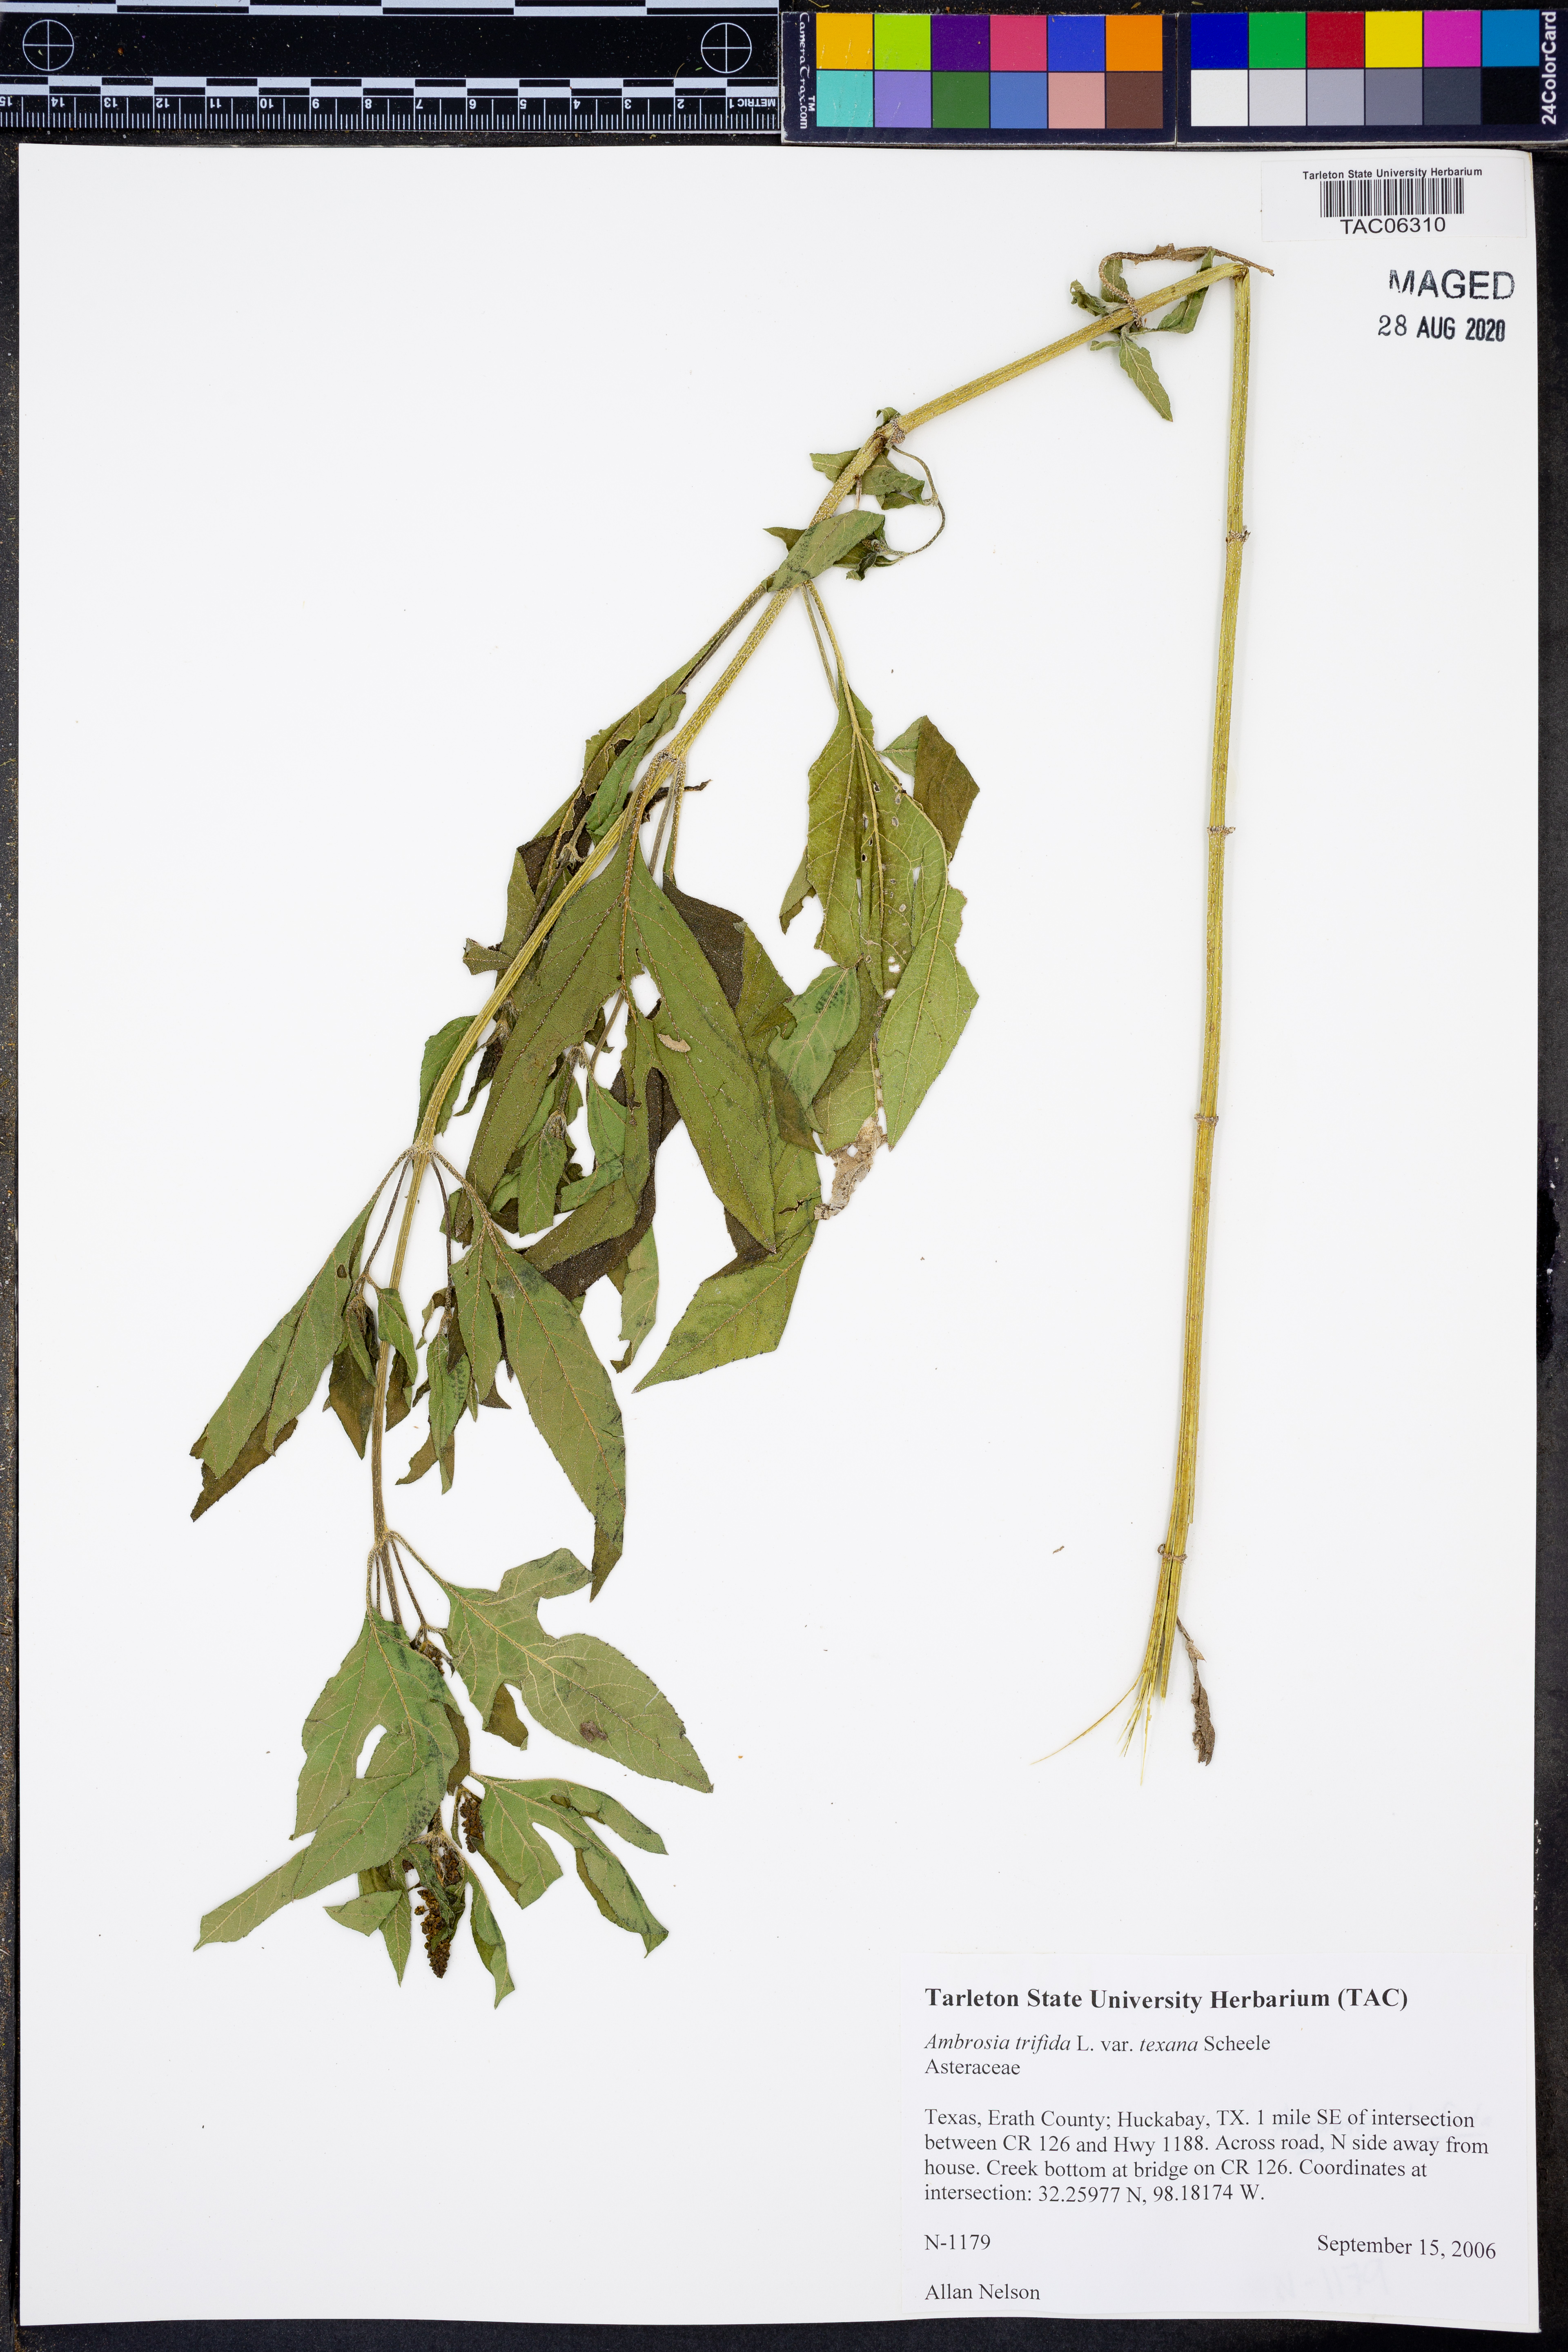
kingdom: Plantae
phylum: Tracheophyta
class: Magnoliopsida
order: Asterales
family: Asteraceae
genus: Ambrosia
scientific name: Ambrosia trifida
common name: Giant ragweed
